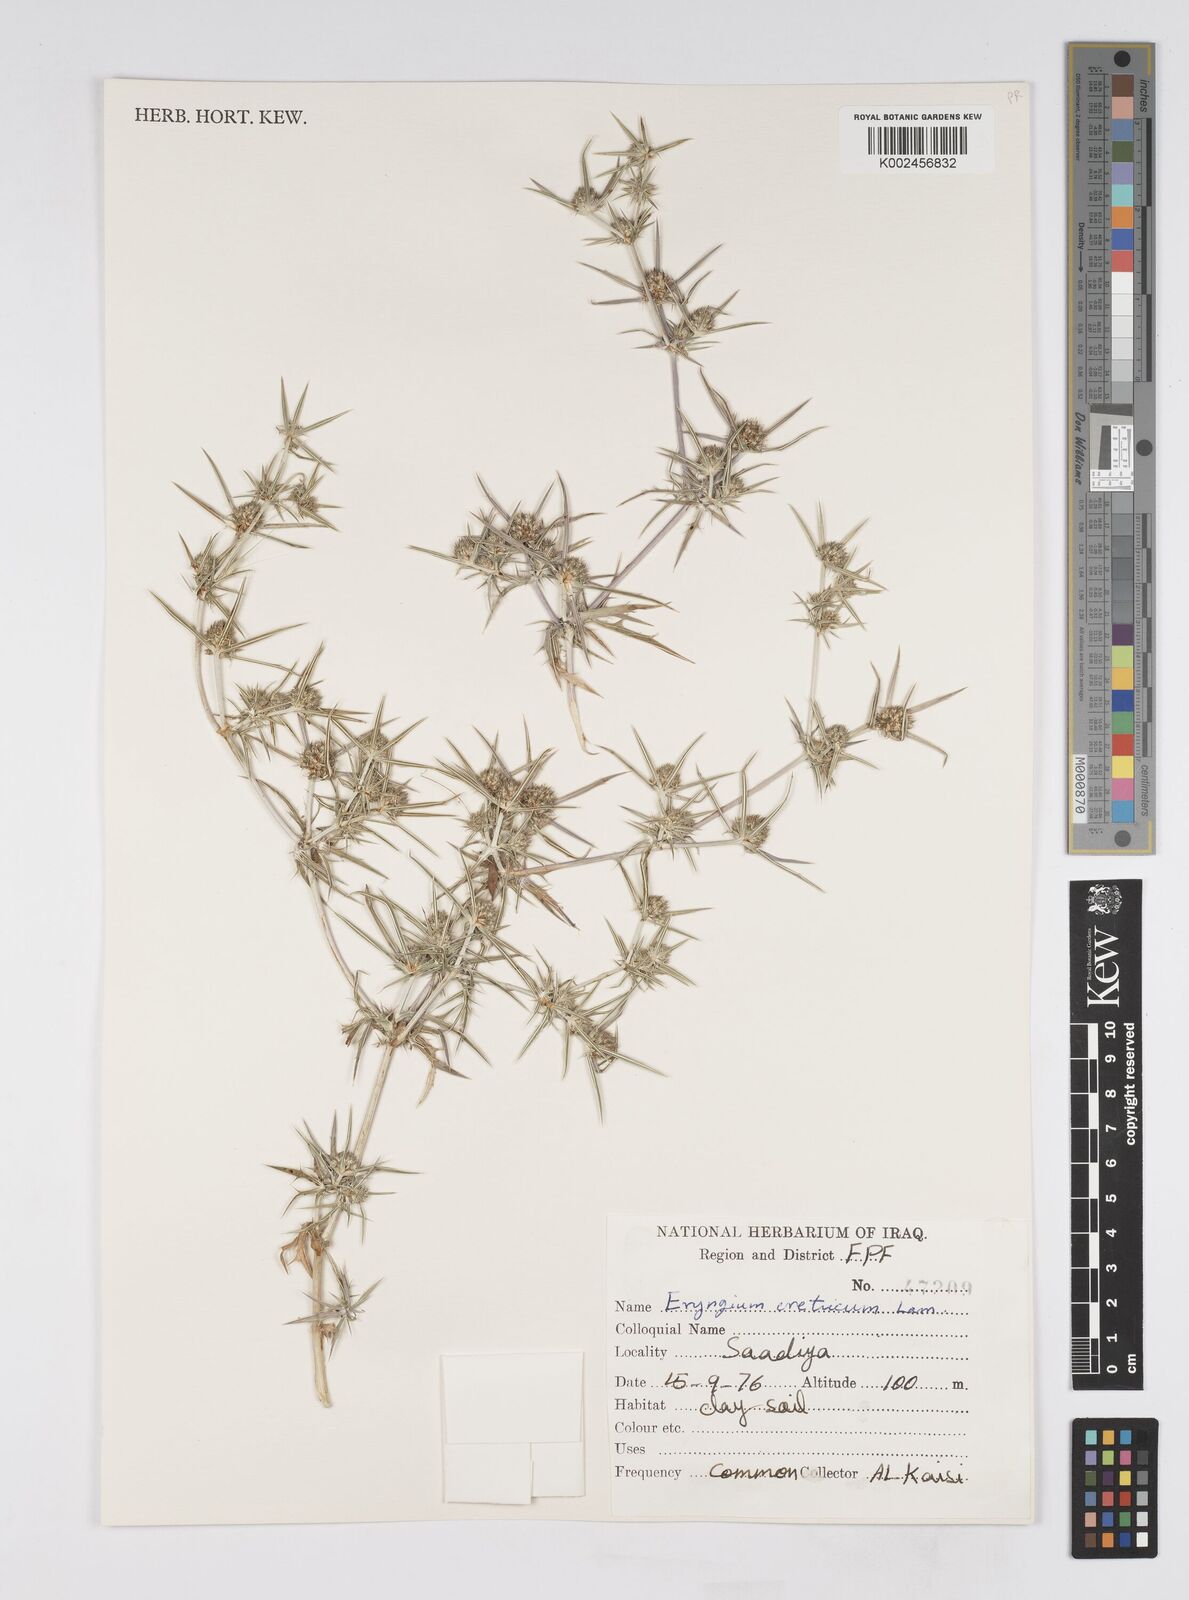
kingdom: Plantae
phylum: Tracheophyta
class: Magnoliopsida
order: Apiales
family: Apiaceae
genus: Eryngium
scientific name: Eryngium creticum
